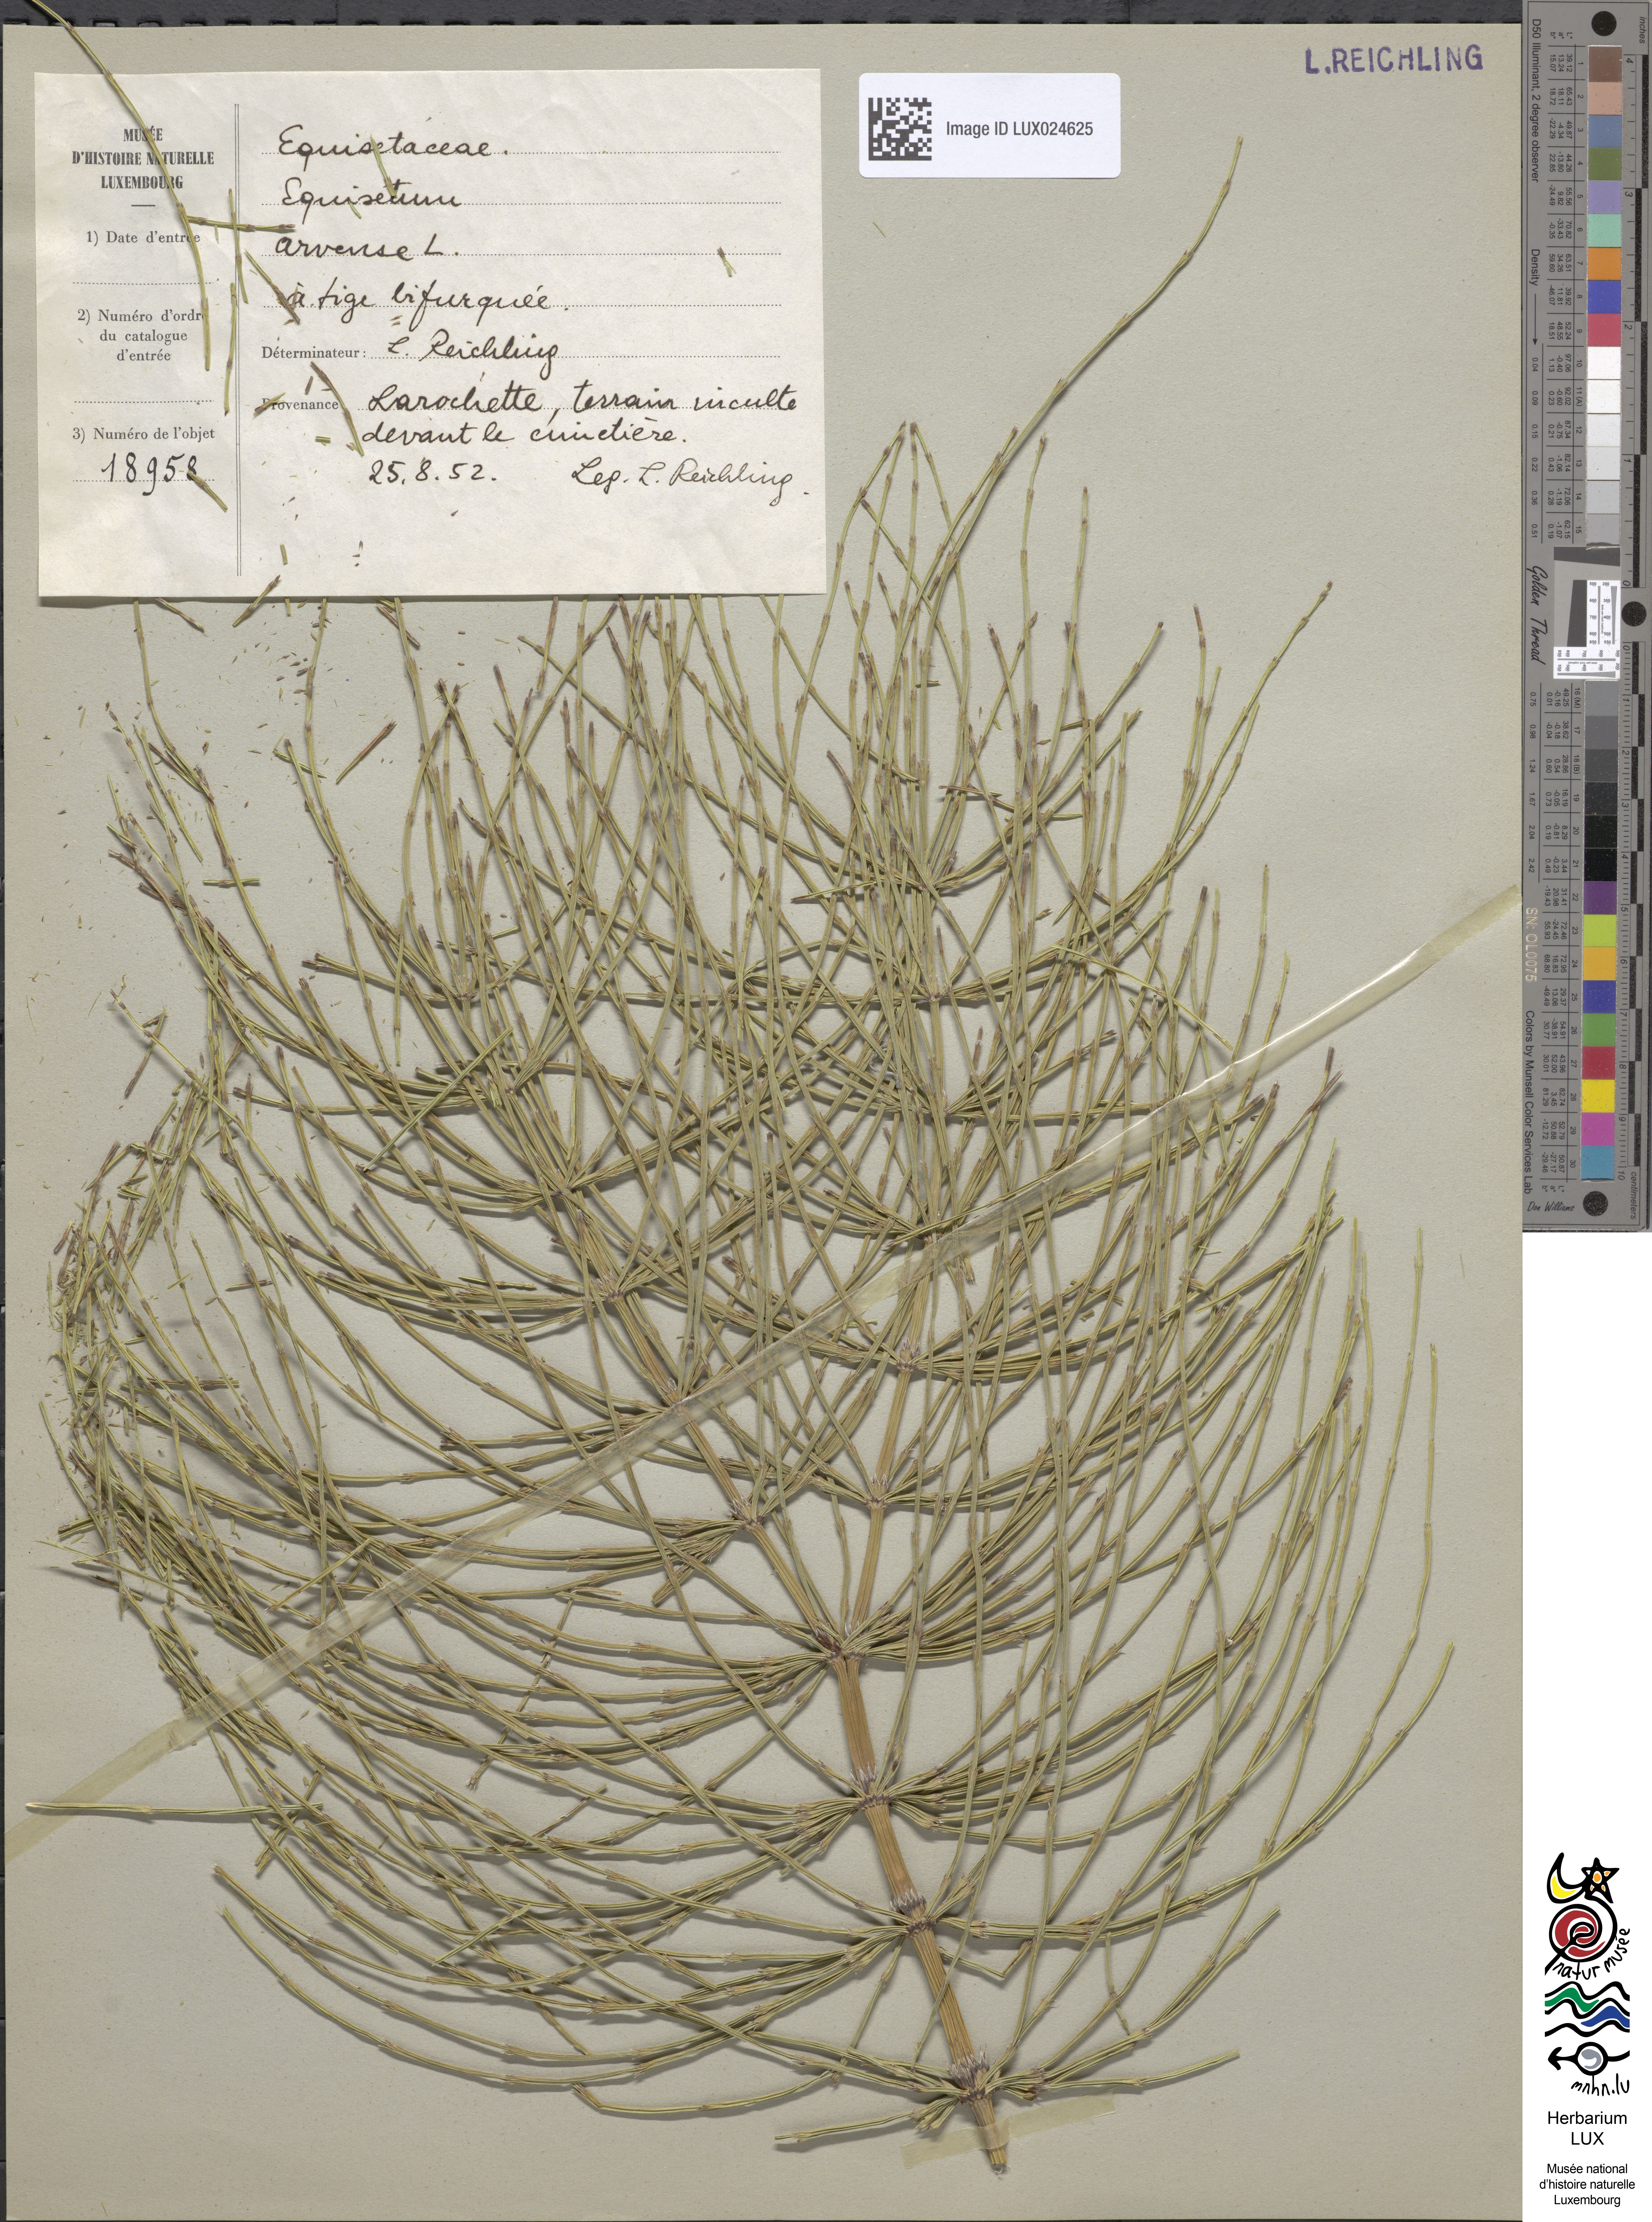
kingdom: Plantae
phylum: Tracheophyta
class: Polypodiopsida
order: Equisetales
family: Equisetaceae
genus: Equisetum
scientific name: Equisetum arvense
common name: Field horsetail
